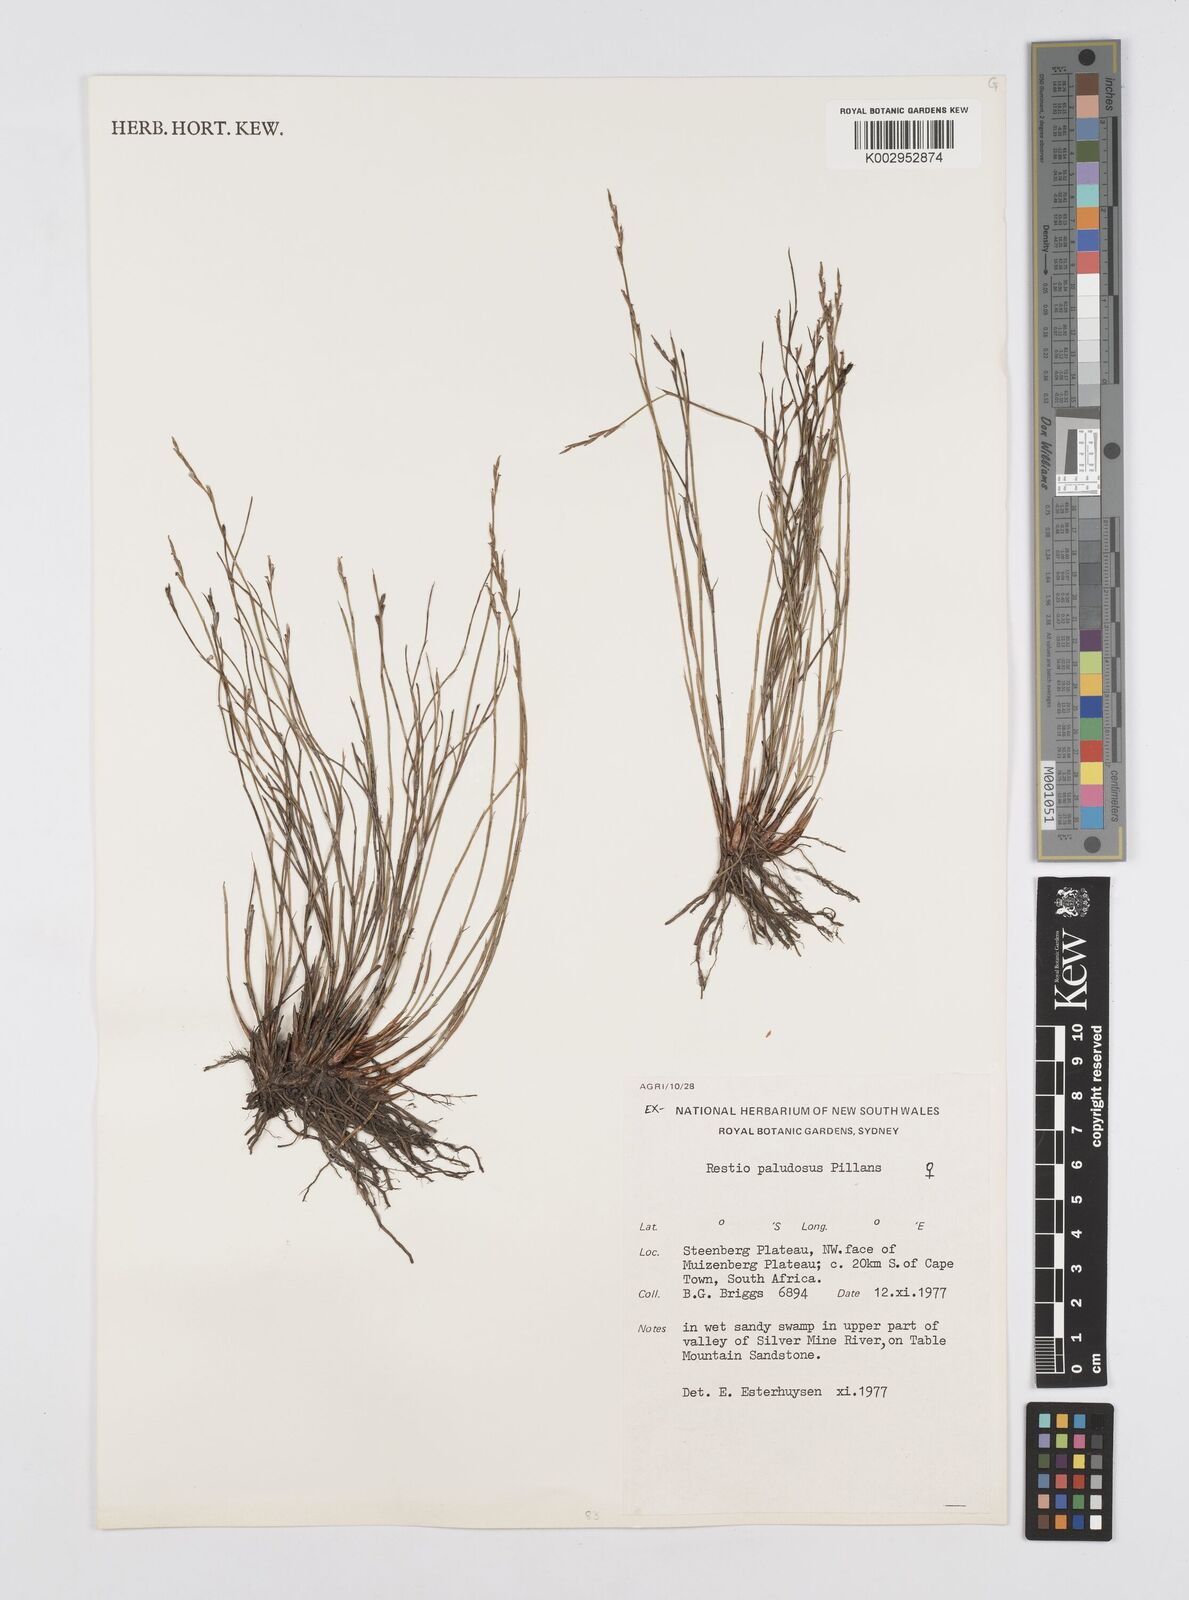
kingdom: Plantae
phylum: Tracheophyta
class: Liliopsida
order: Poales
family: Restionaceae
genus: Restio
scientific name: Restio paludosus
